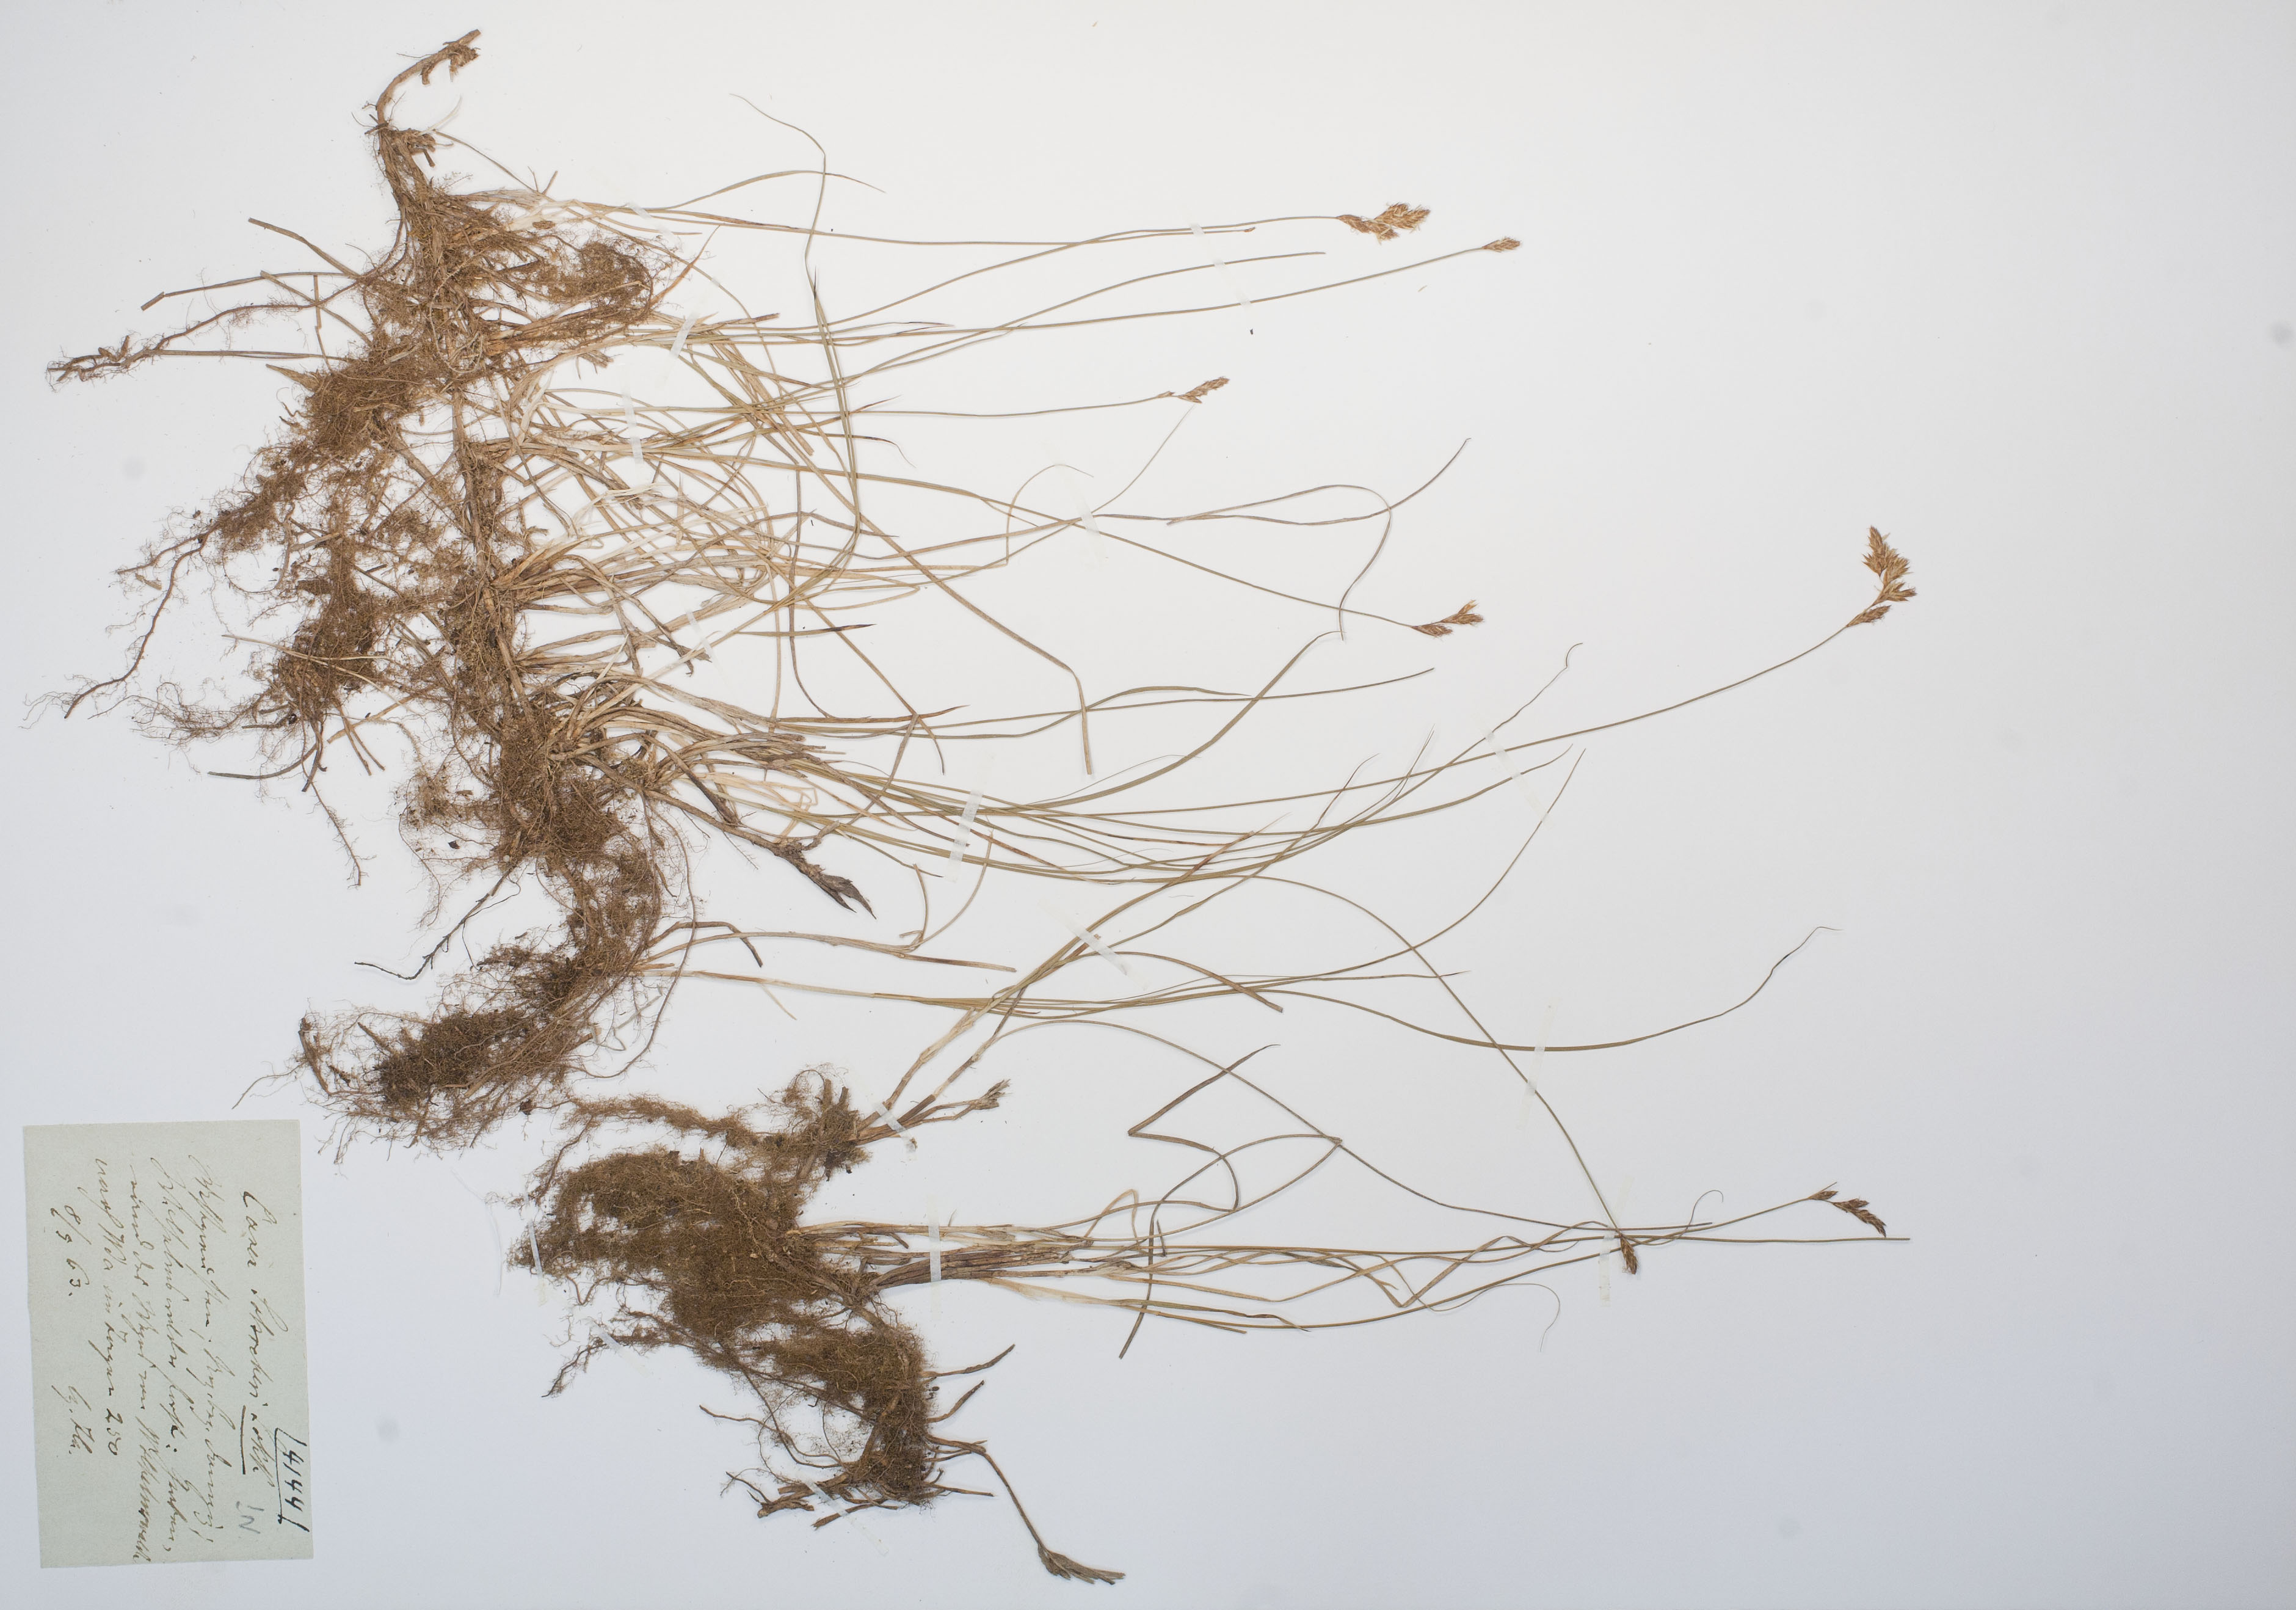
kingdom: Plantae
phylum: Tracheophyta
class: Liliopsida
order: Poales
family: Cyperaceae
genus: Carex
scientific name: Carex praecox
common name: Early sedge
